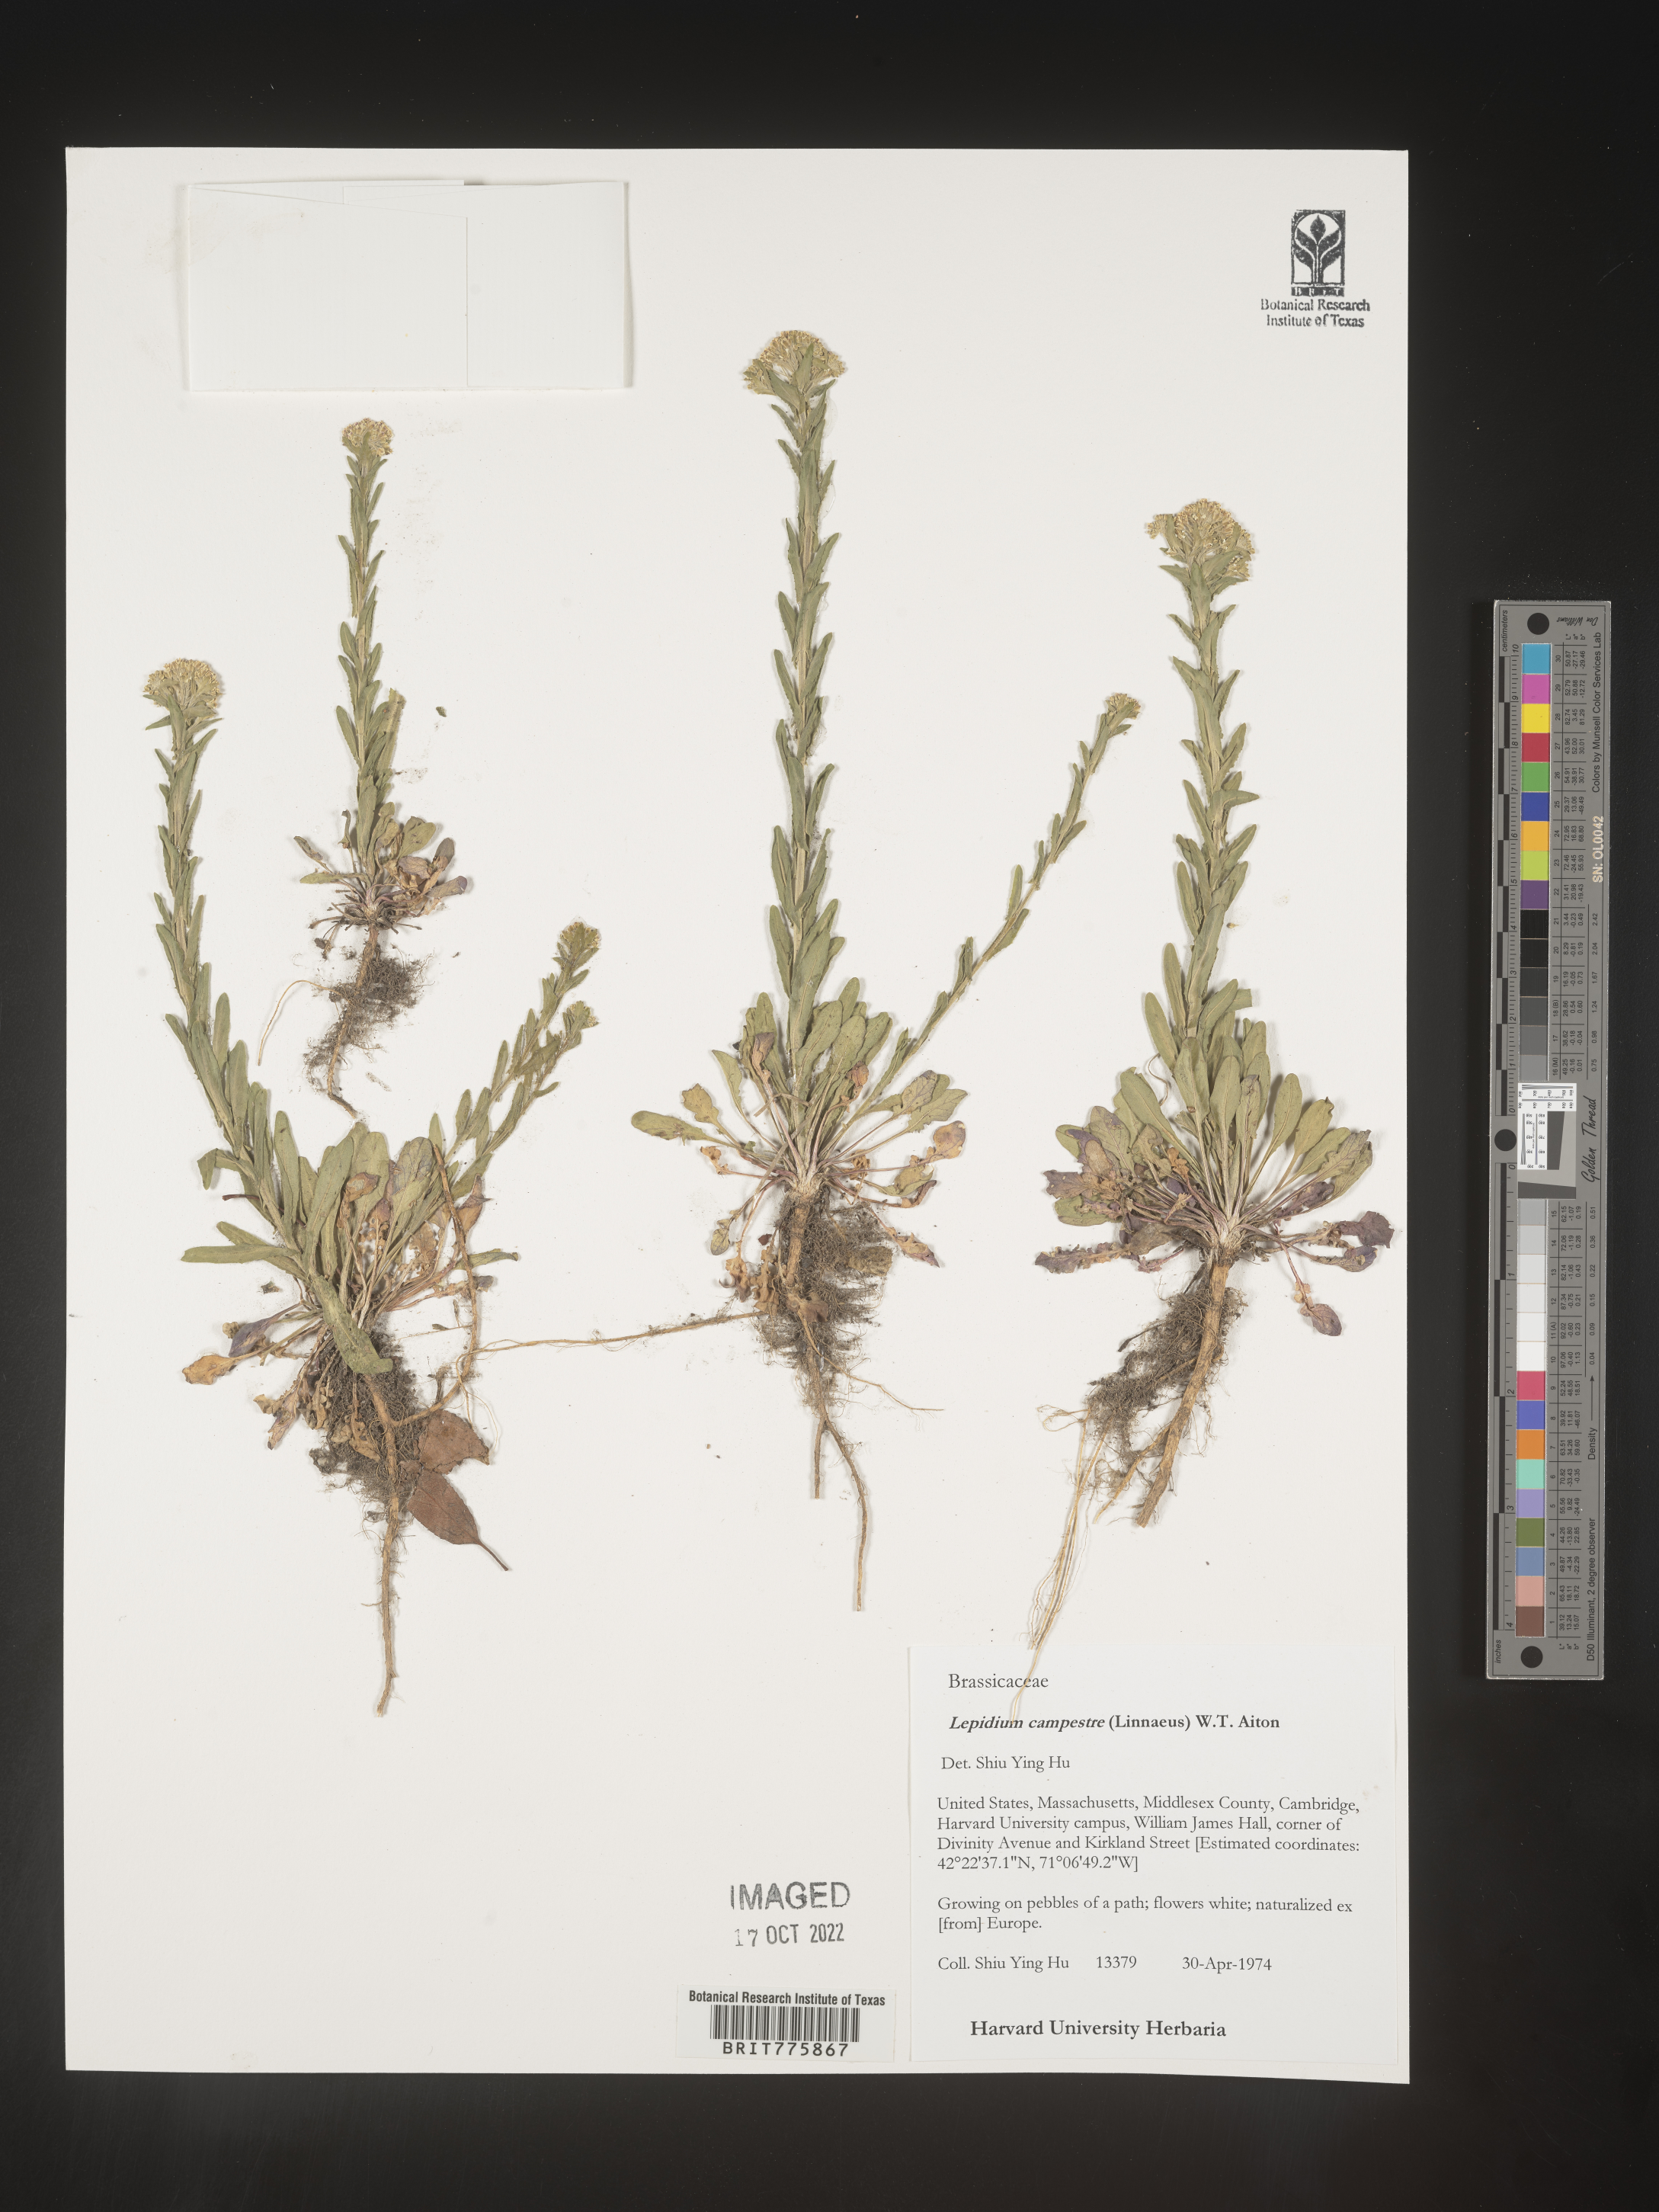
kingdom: Plantae
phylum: Tracheophyta
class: Magnoliopsida
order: Brassicales
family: Brassicaceae
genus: Lepidium
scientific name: Lepidium campestre
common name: Field pepperwort
